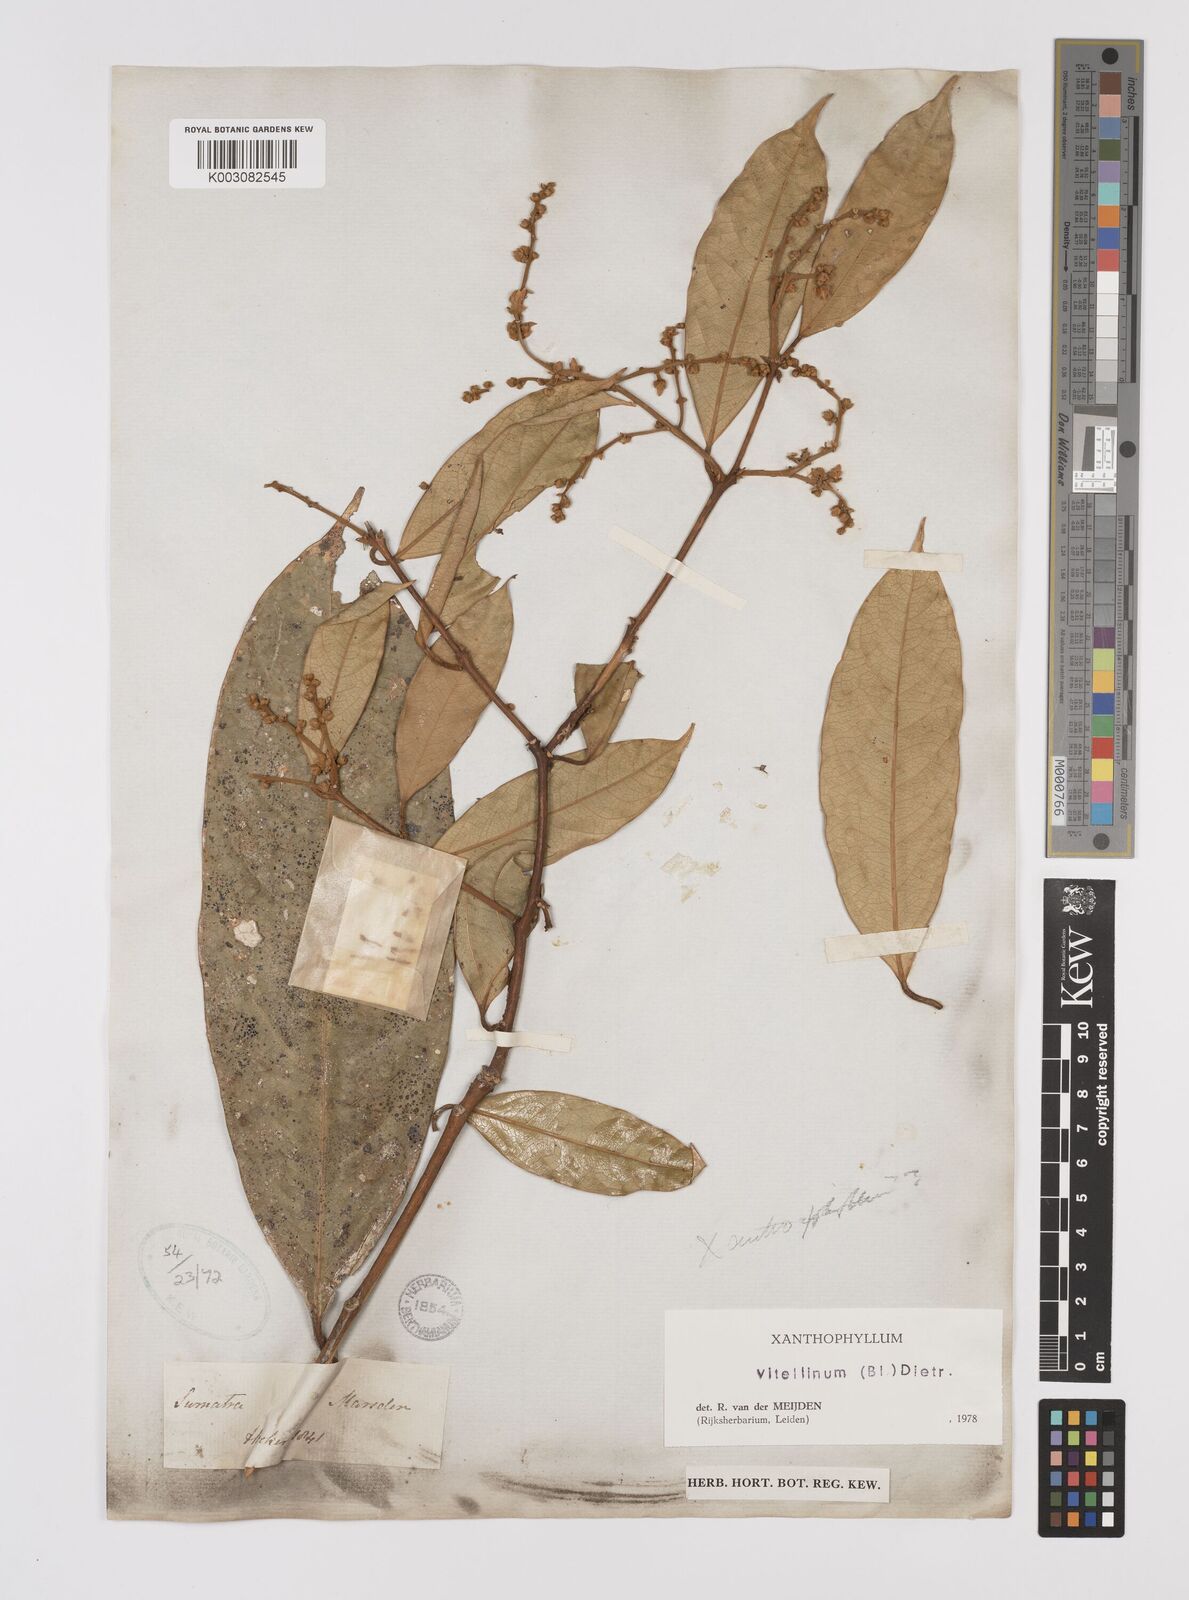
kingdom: Plantae
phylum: Tracheophyta
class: Magnoliopsida
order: Fabales
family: Polygalaceae
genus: Xanthophyllum
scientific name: Xanthophyllum vitellinum
